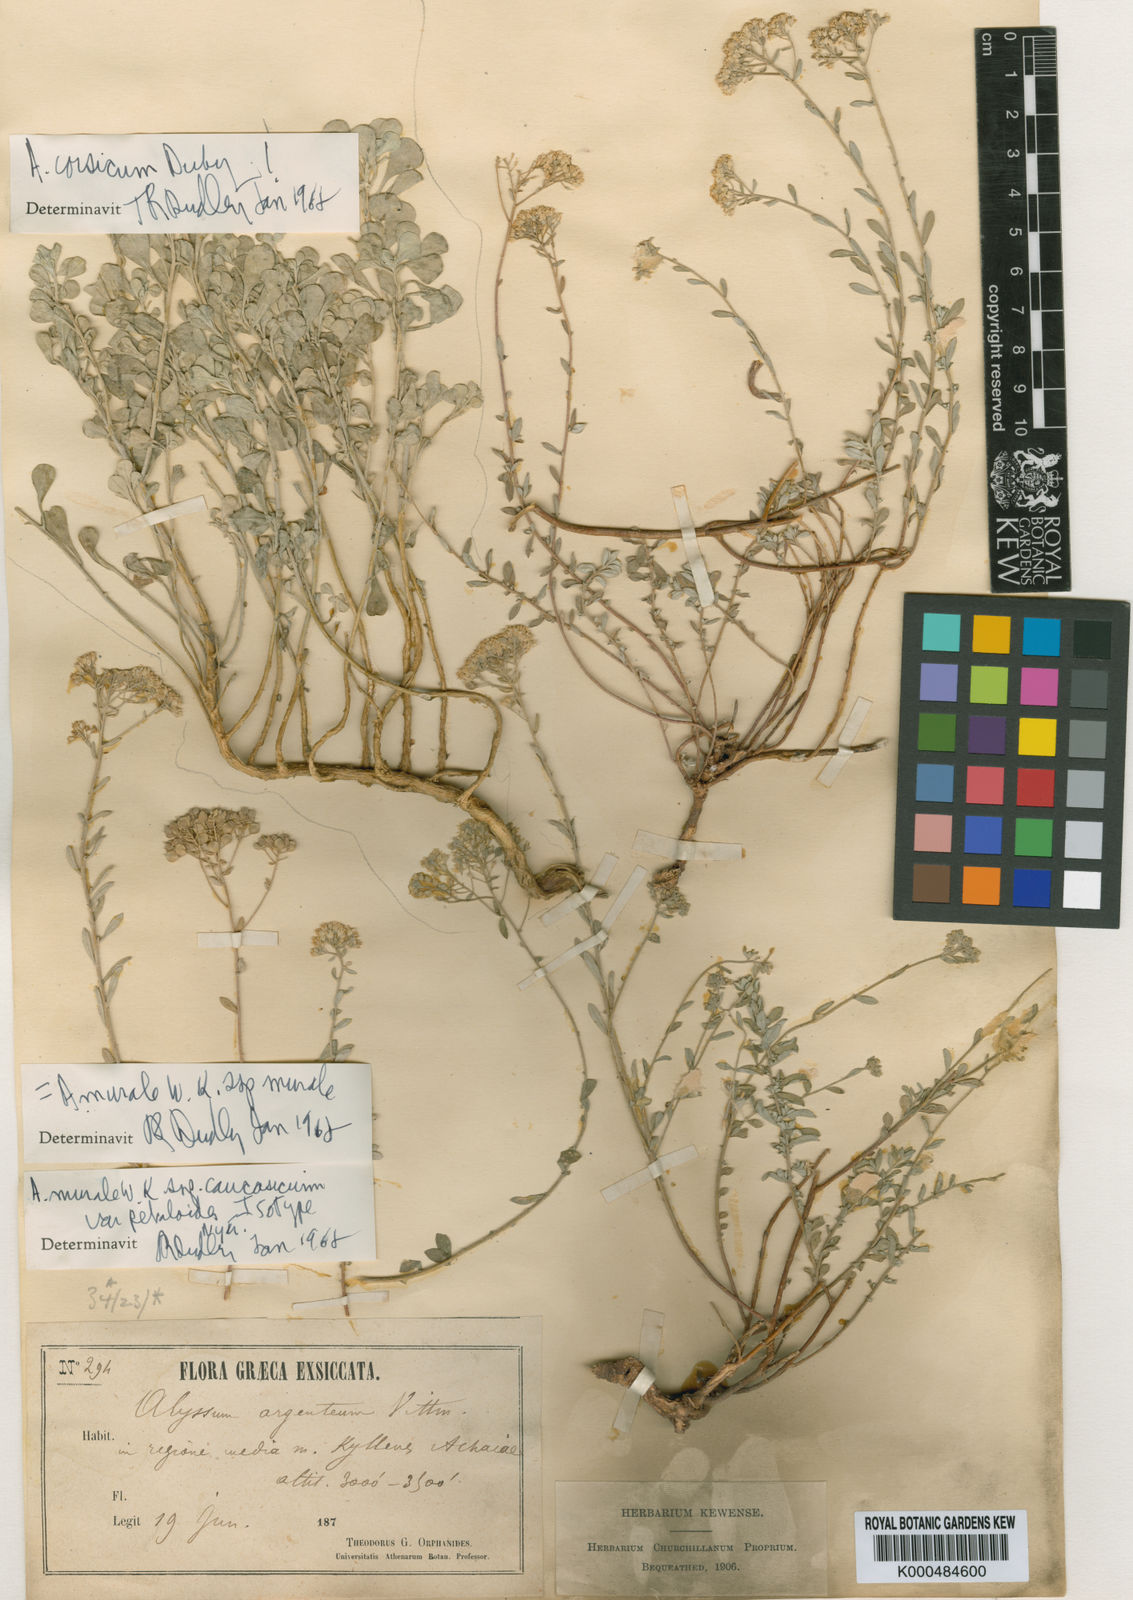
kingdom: Plantae
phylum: Tracheophyta
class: Magnoliopsida
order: Brassicales
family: Brassicaceae
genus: Odontarrhena
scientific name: Odontarrhena muralis
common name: Rock alyssum
